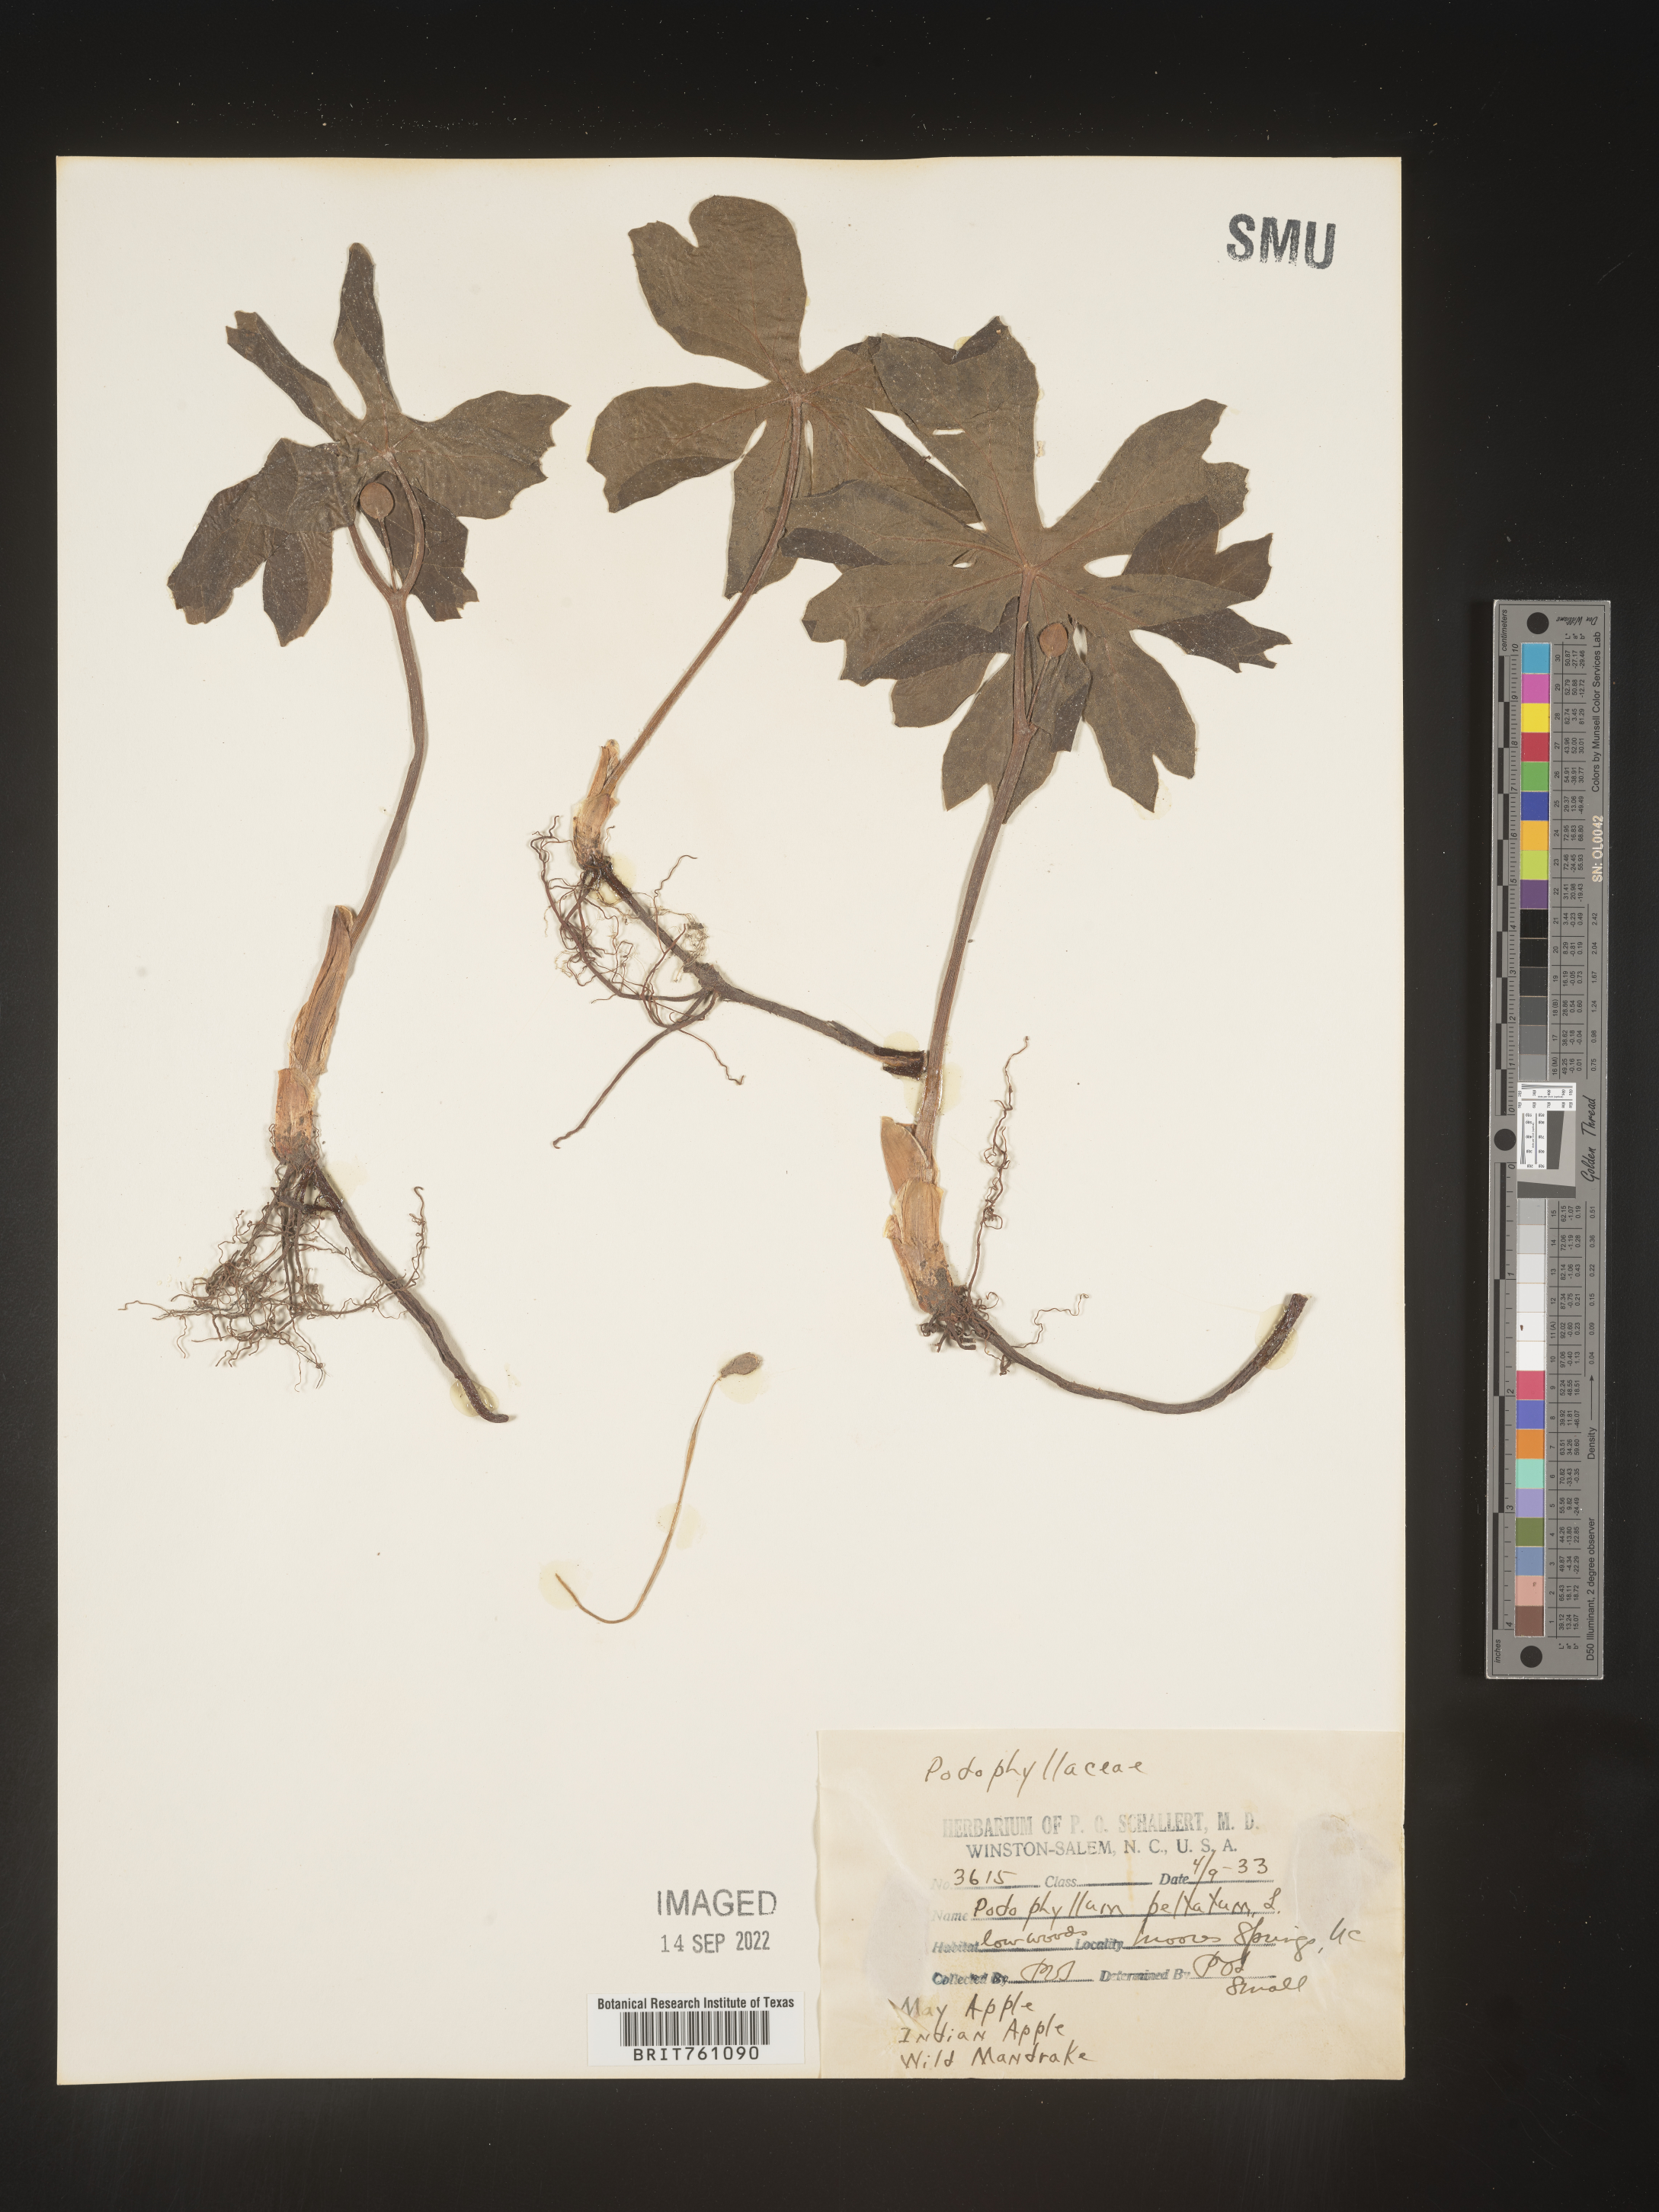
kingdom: Plantae
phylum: Tracheophyta
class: Magnoliopsida
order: Ranunculales
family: Berberidaceae
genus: Podophyllum
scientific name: Podophyllum peltatum
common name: Wild mandrake
